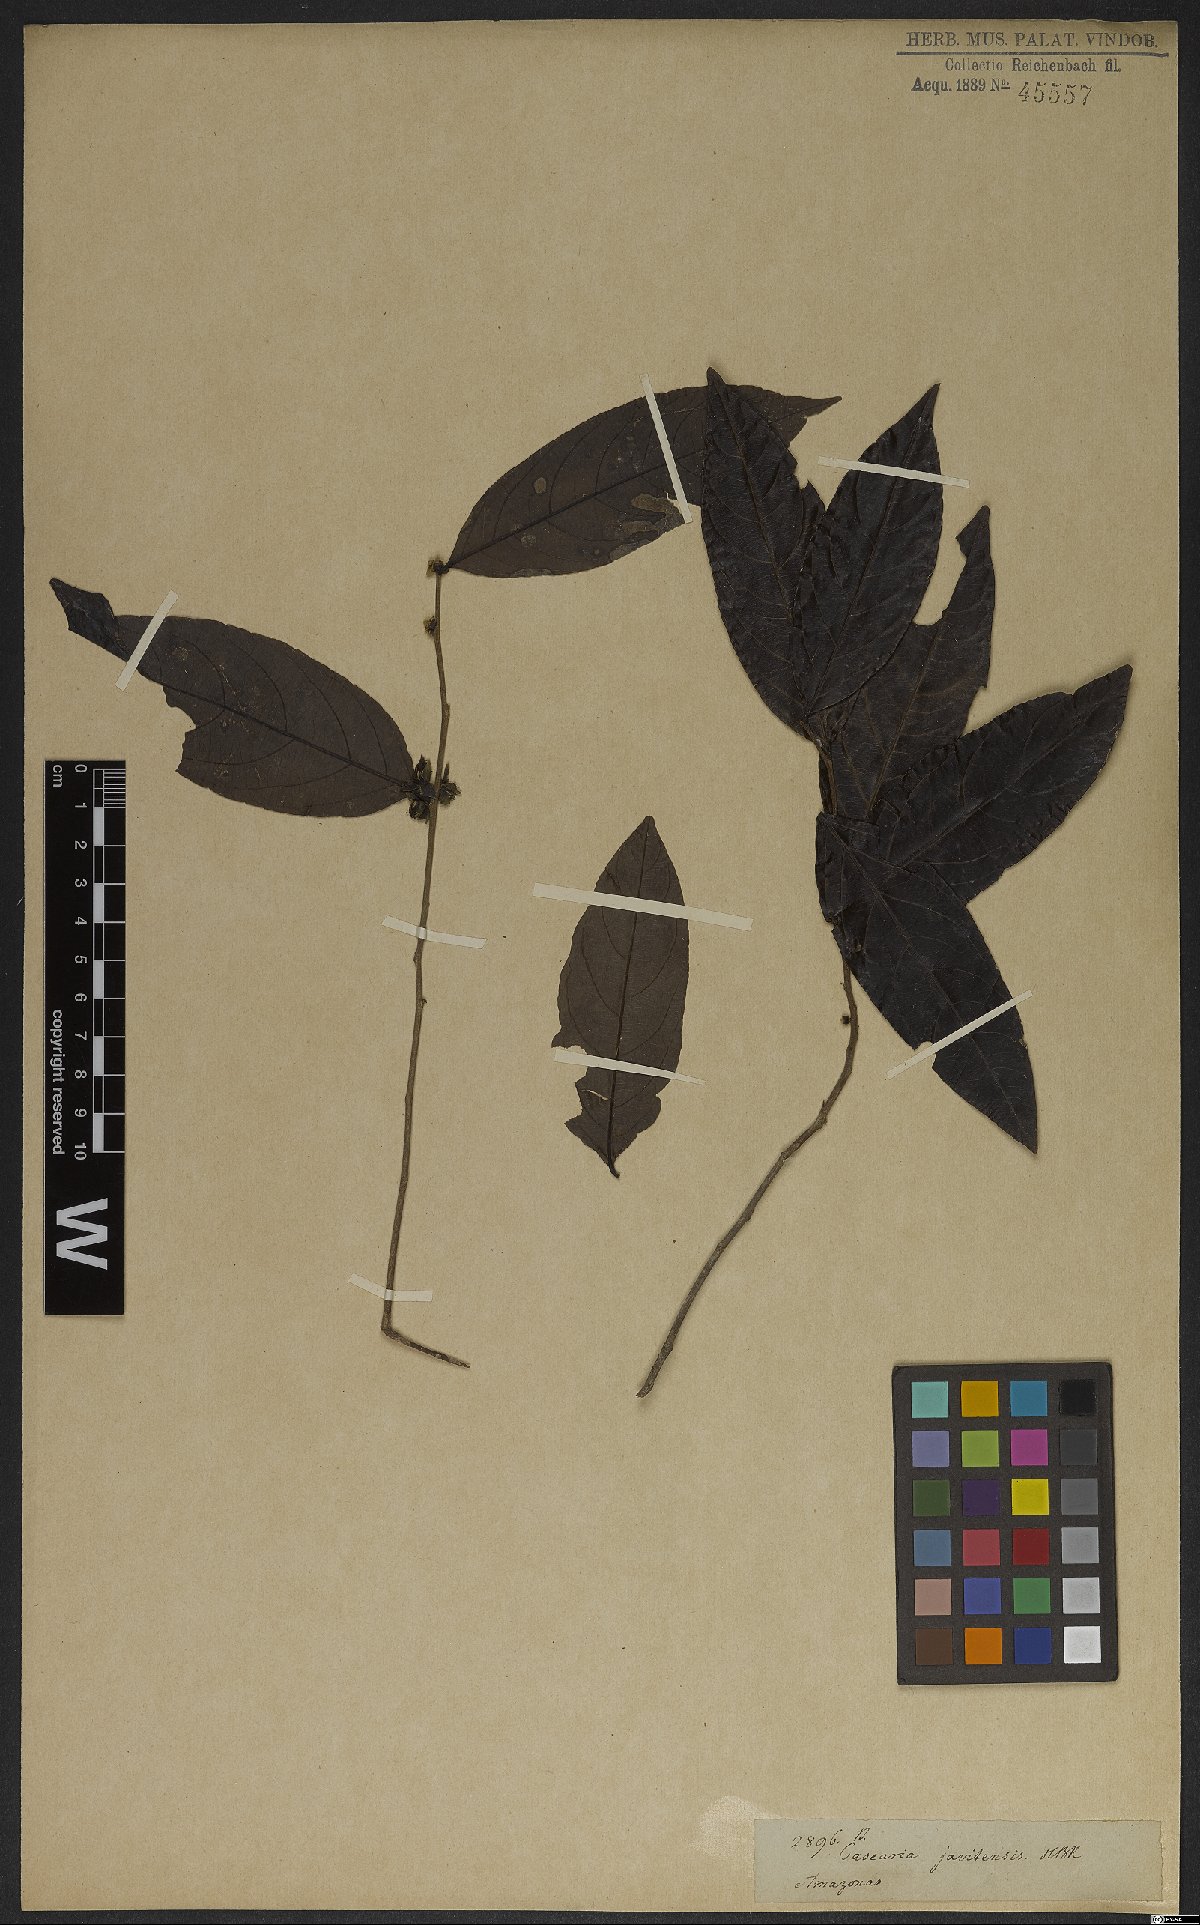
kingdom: Plantae
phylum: Tracheophyta
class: Magnoliopsida
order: Malpighiales
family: Salicaceae
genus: Piparea
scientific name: Piparea multiflora
